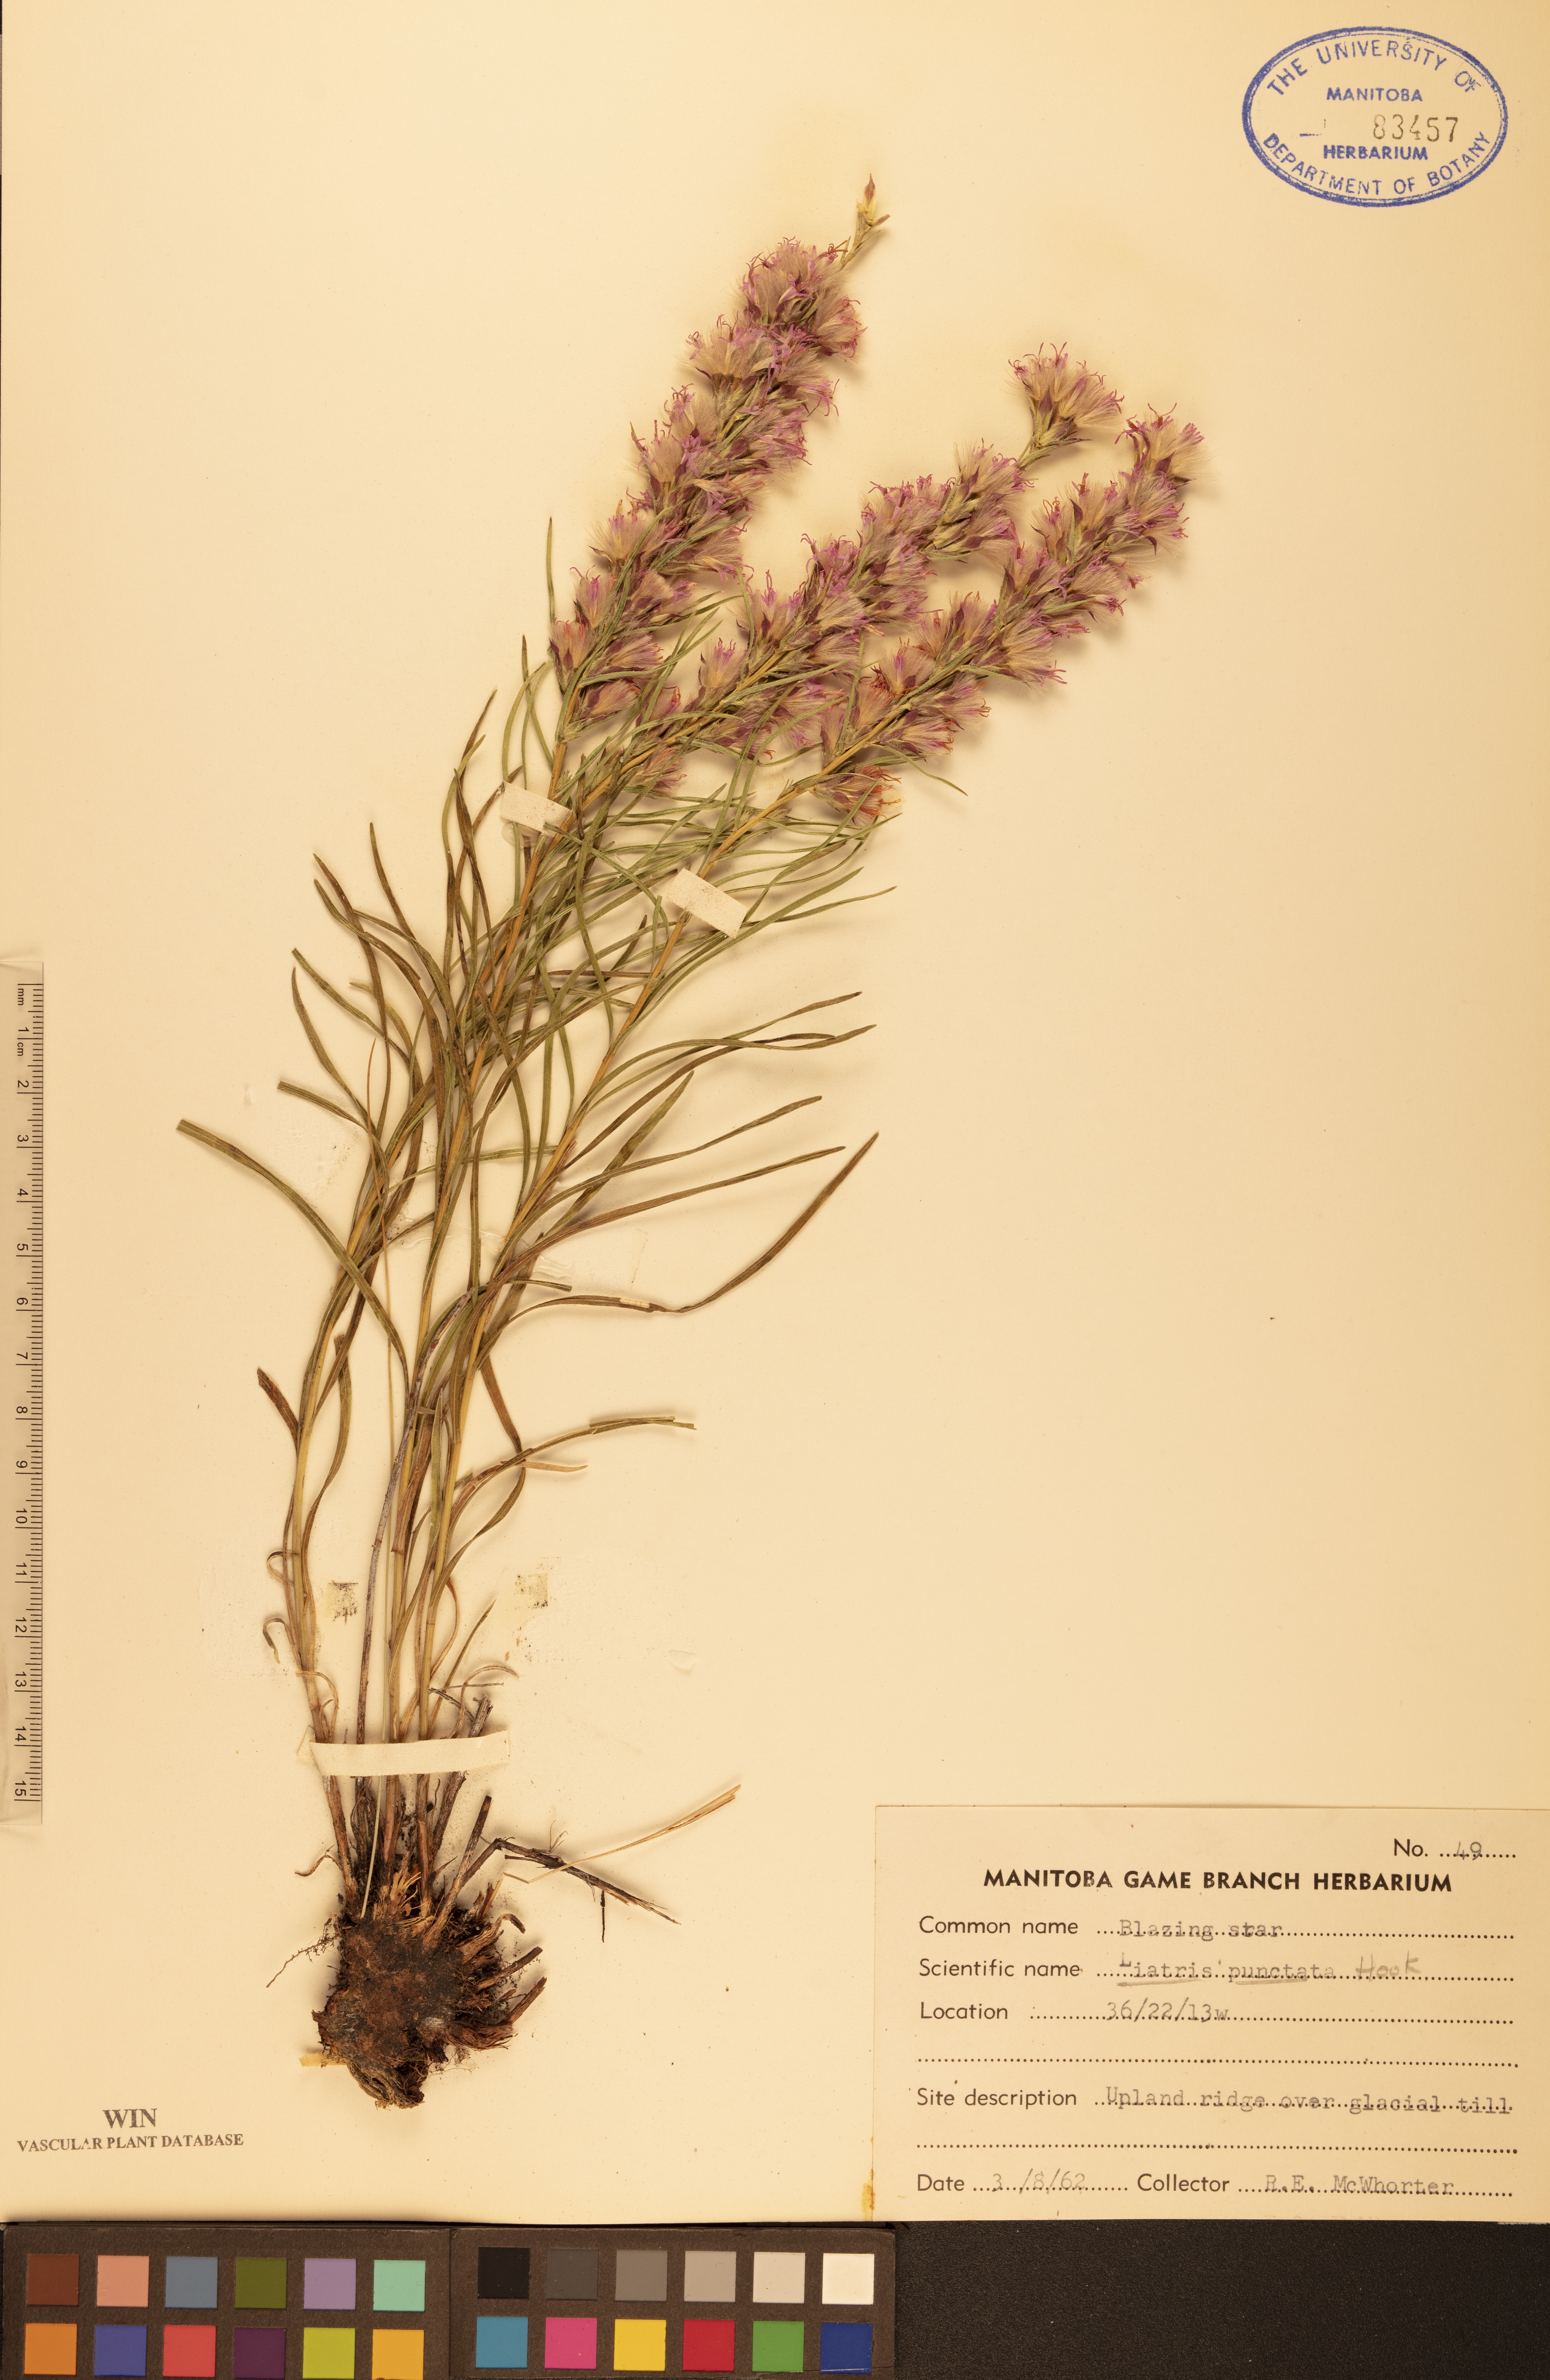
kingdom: Plantae
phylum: Tracheophyta
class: Magnoliopsida
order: Asterales
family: Asteraceae
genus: Liatris
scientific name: Liatris punctata
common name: Dotted gayfeather
